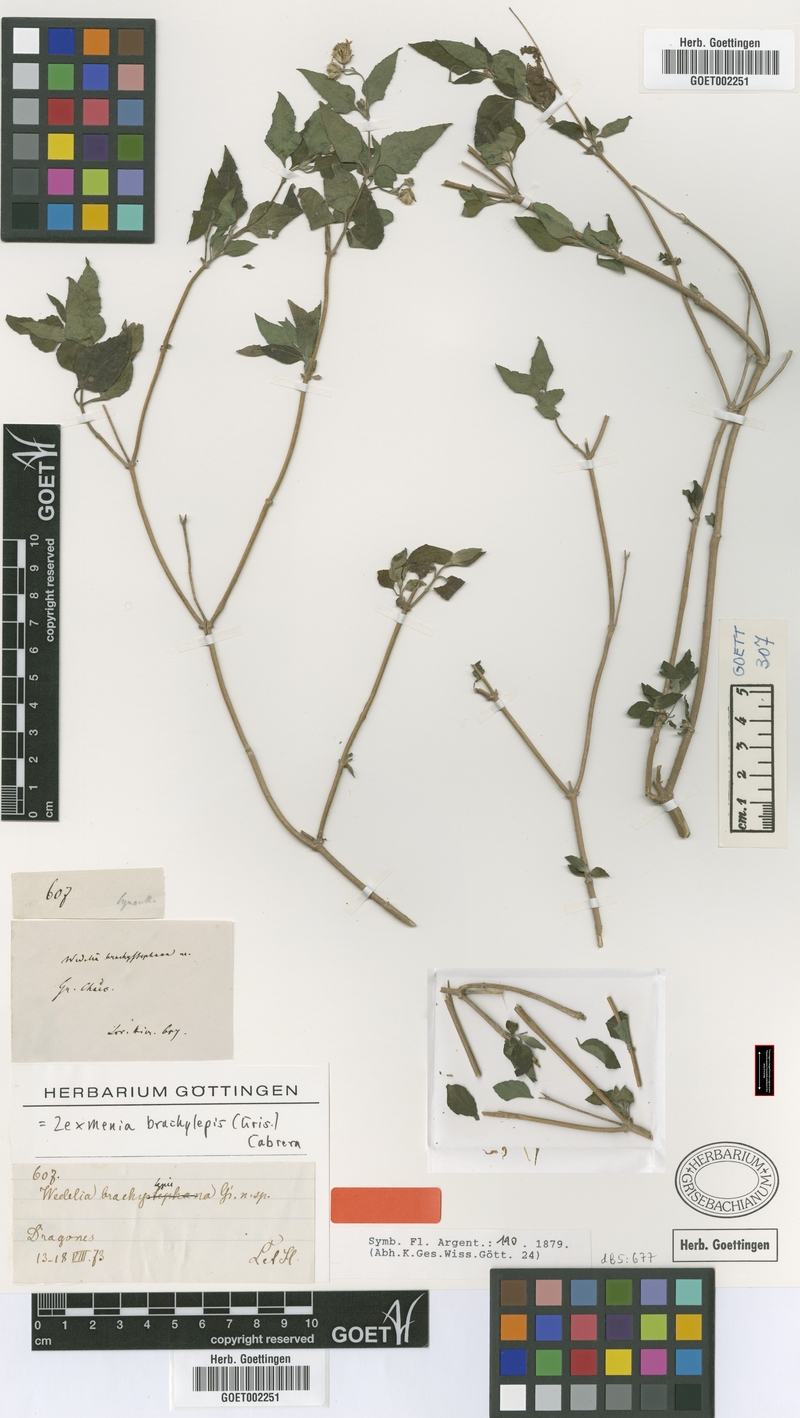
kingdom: Plantae
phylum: Tracheophyta
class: Magnoliopsida
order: Asterales
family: Asteraceae
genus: Zexmenia
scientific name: Zexmenia brachylepis
